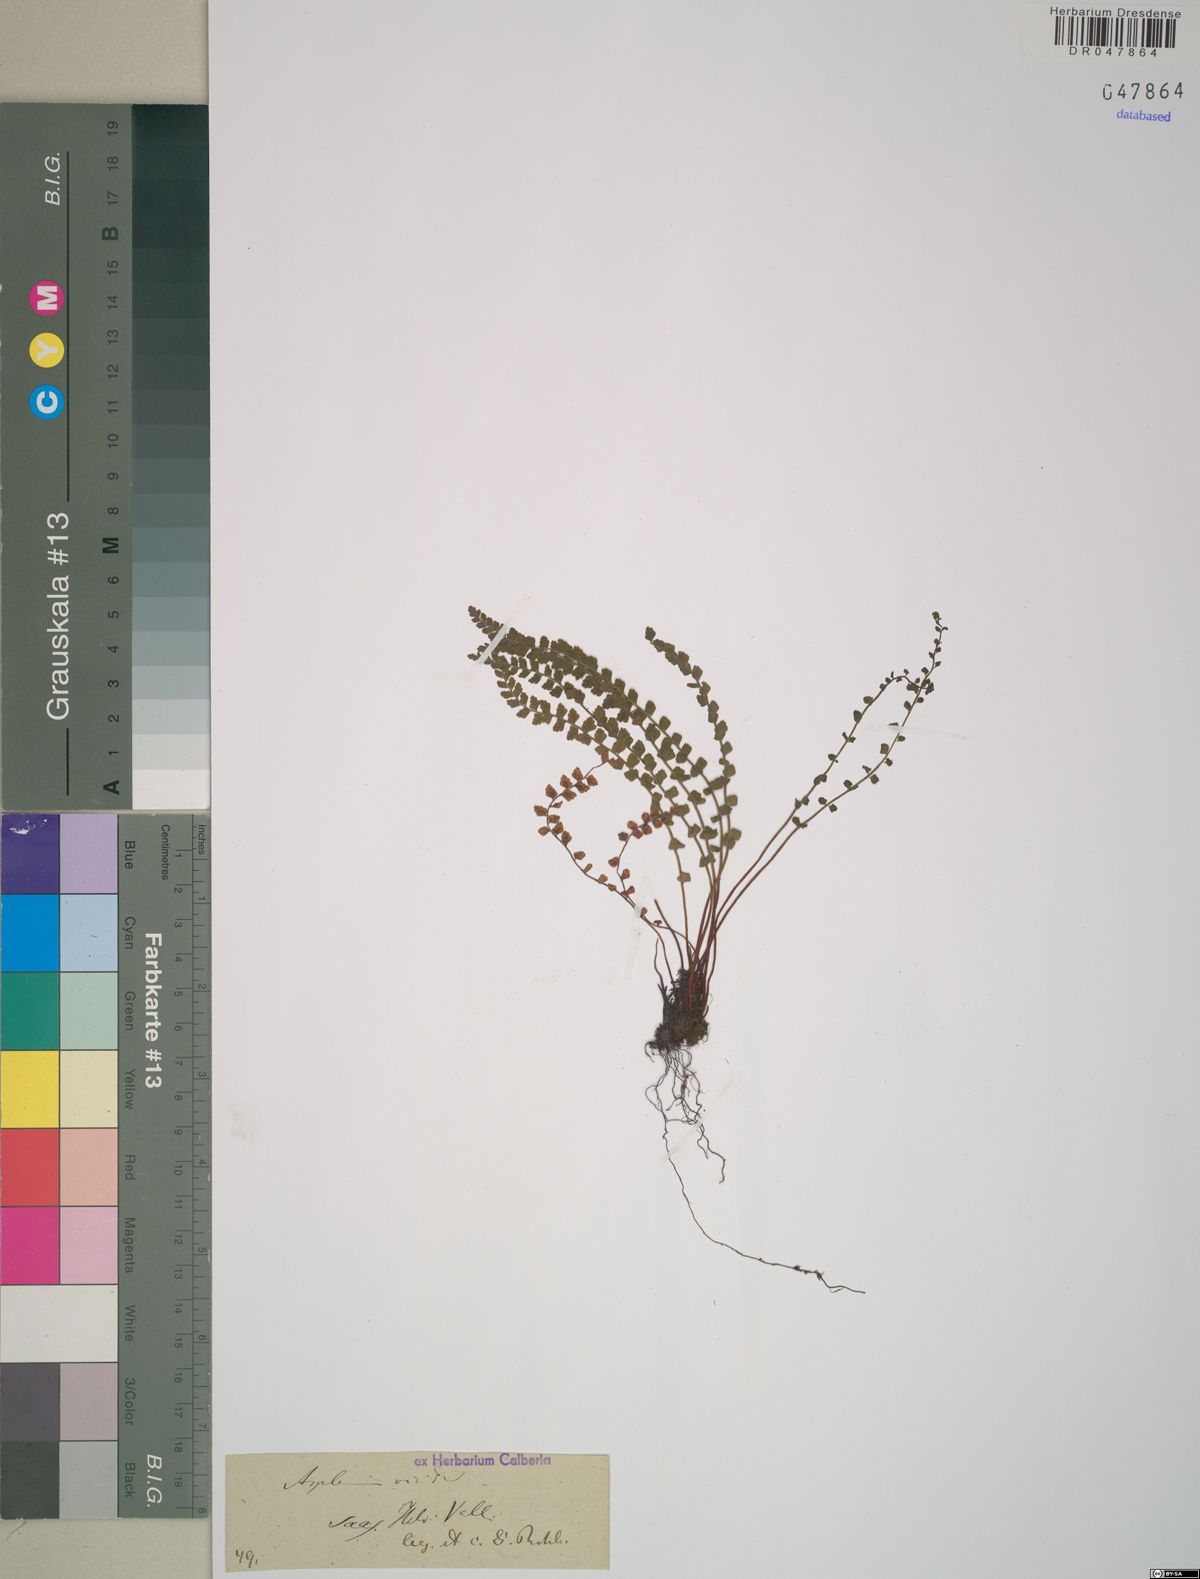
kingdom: Plantae
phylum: Tracheophyta
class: Polypodiopsida
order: Polypodiales
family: Aspleniaceae
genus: Asplenium
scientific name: Asplenium viride
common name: Green spleenwort
